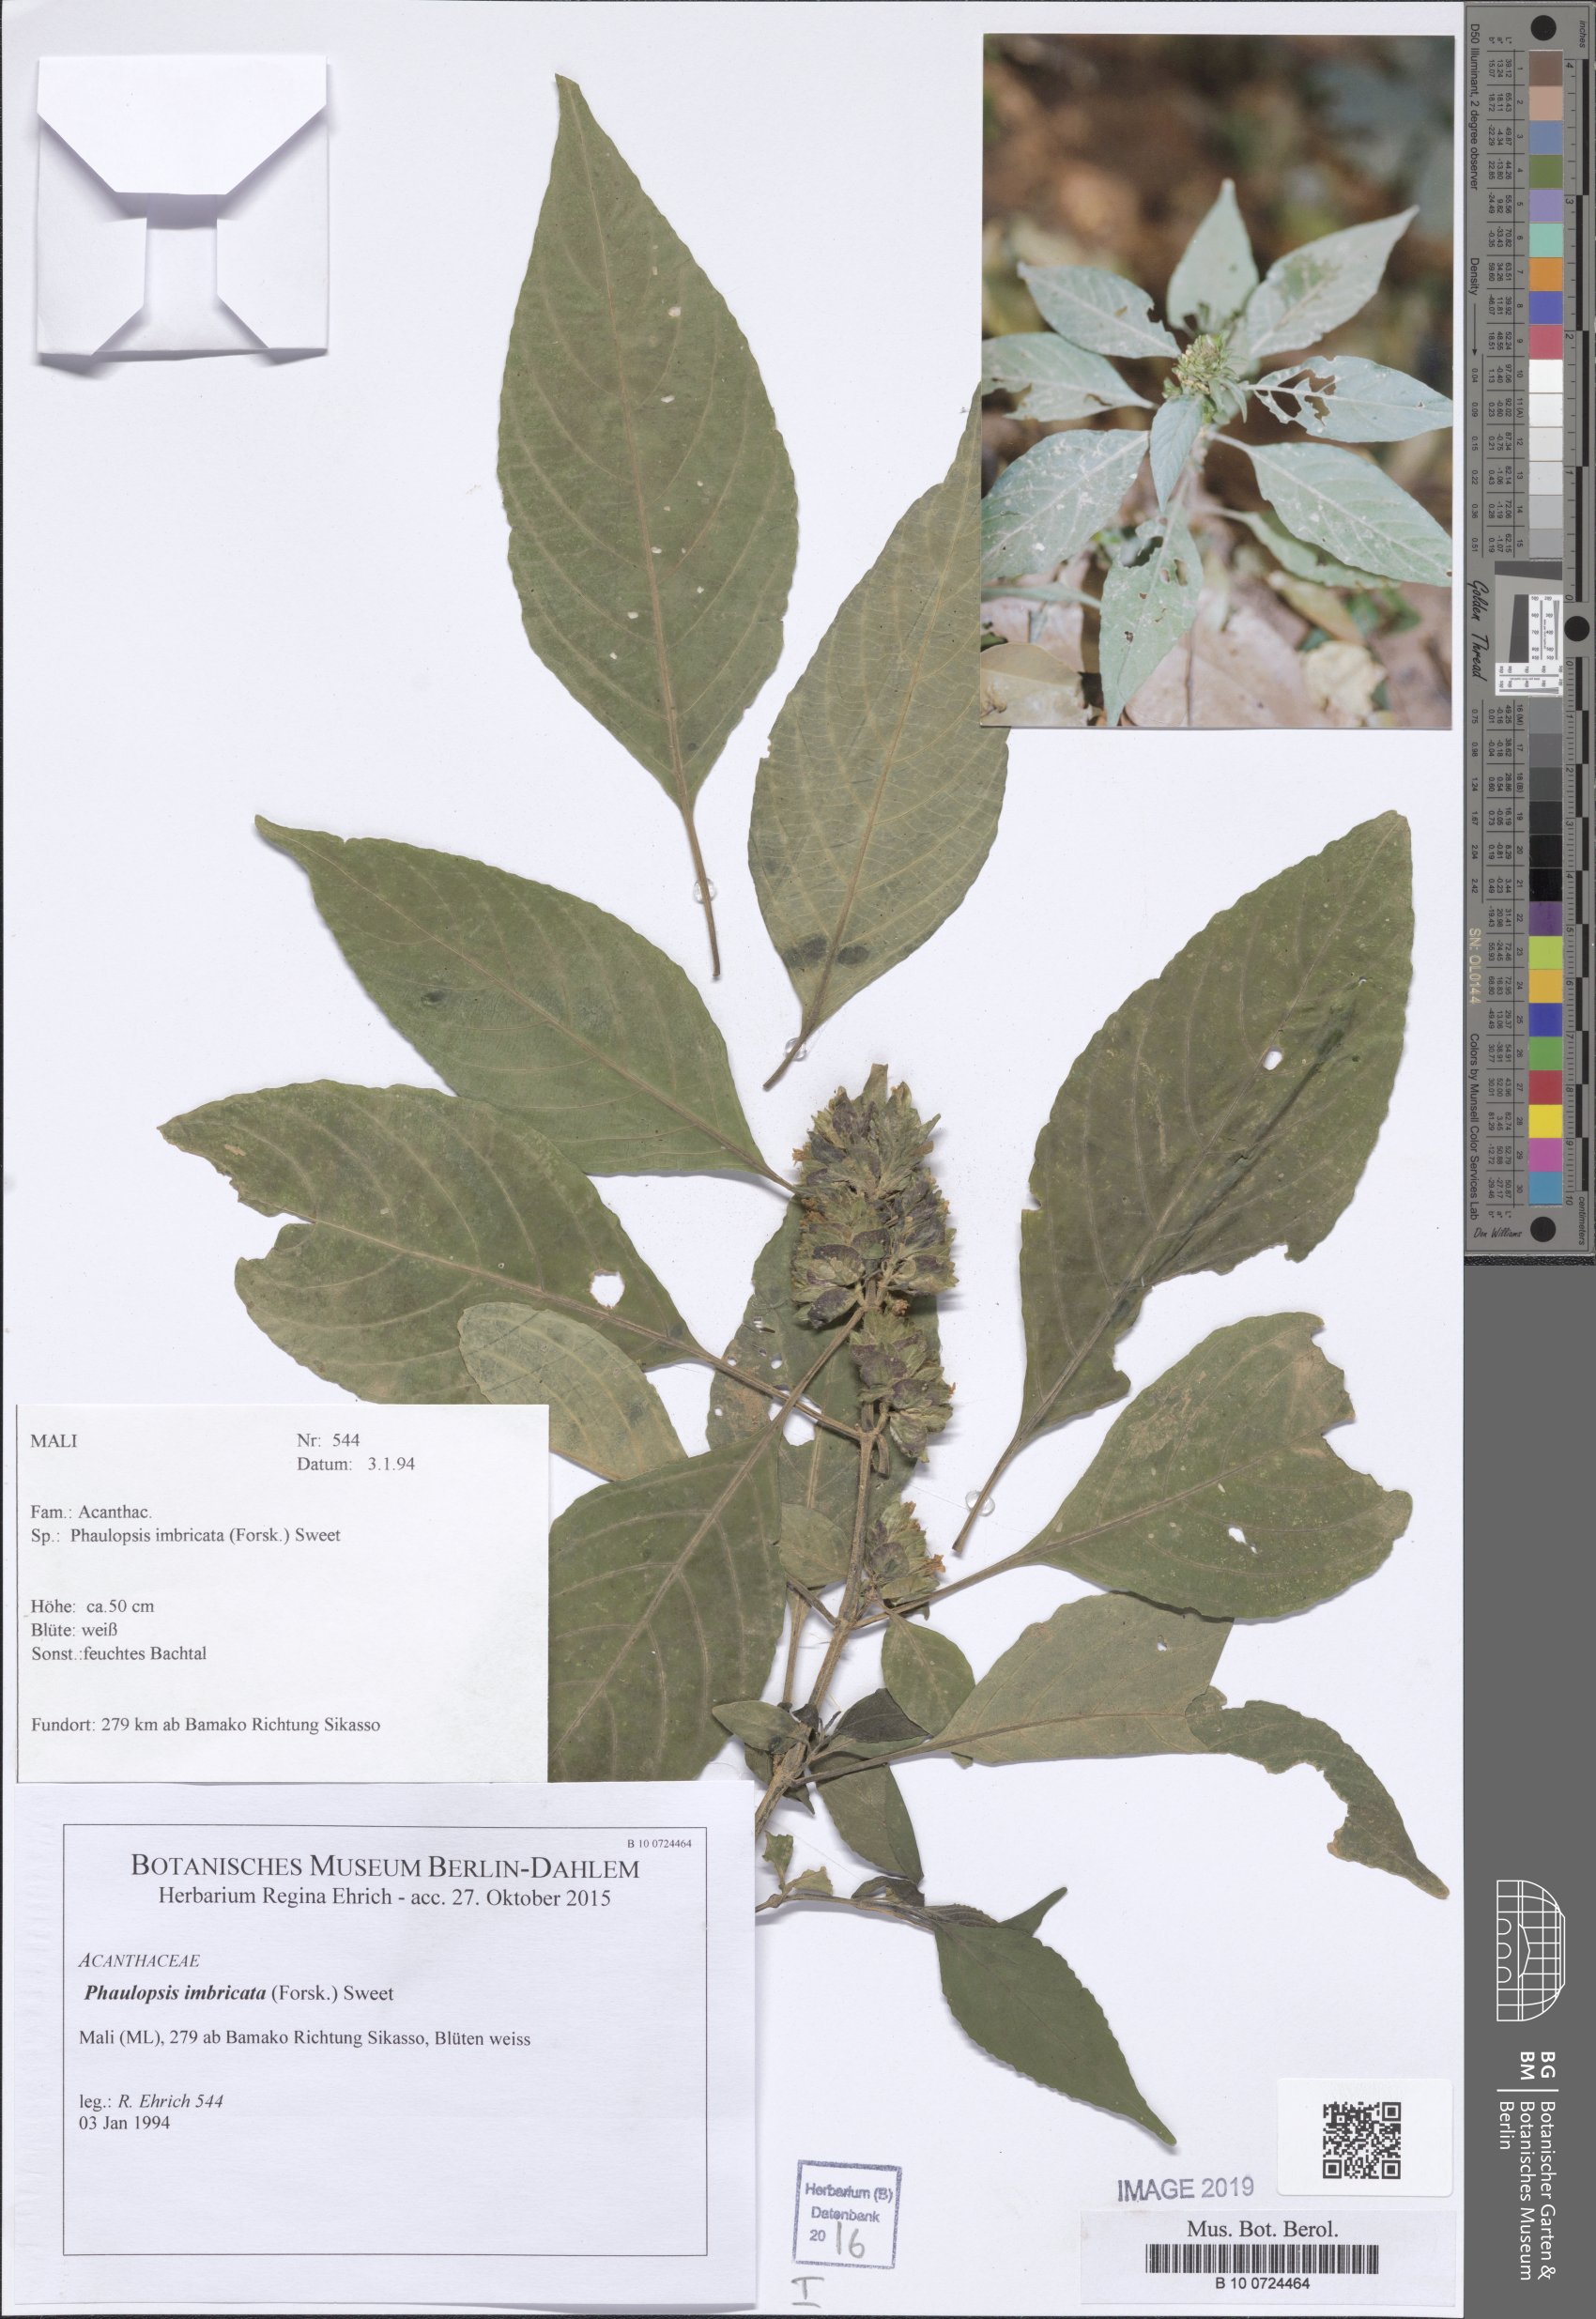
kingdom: Plantae
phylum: Tracheophyta
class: Magnoliopsida
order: Lamiales
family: Acanthaceae
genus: Phaulopsis
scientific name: Phaulopsis imbricata
